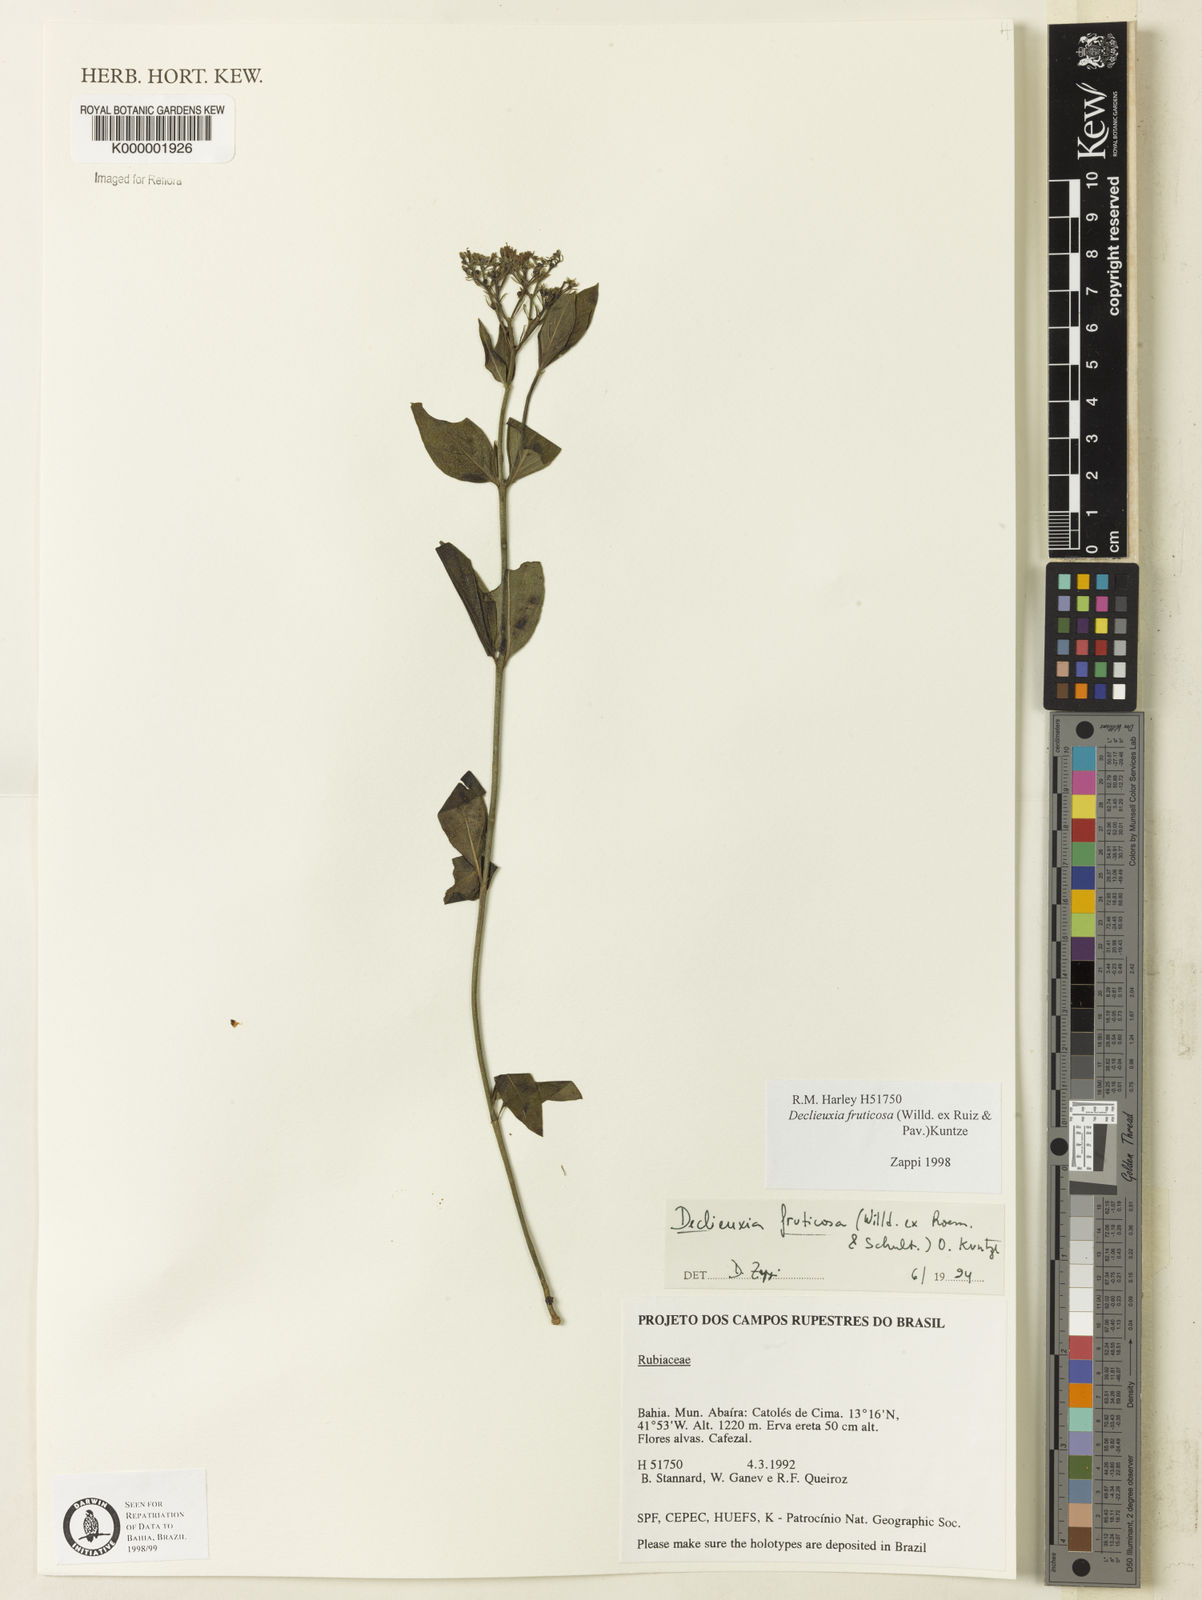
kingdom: Plantae
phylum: Tracheophyta
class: Magnoliopsida
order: Gentianales
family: Rubiaceae
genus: Declieuxia
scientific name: Declieuxia fruticosa
